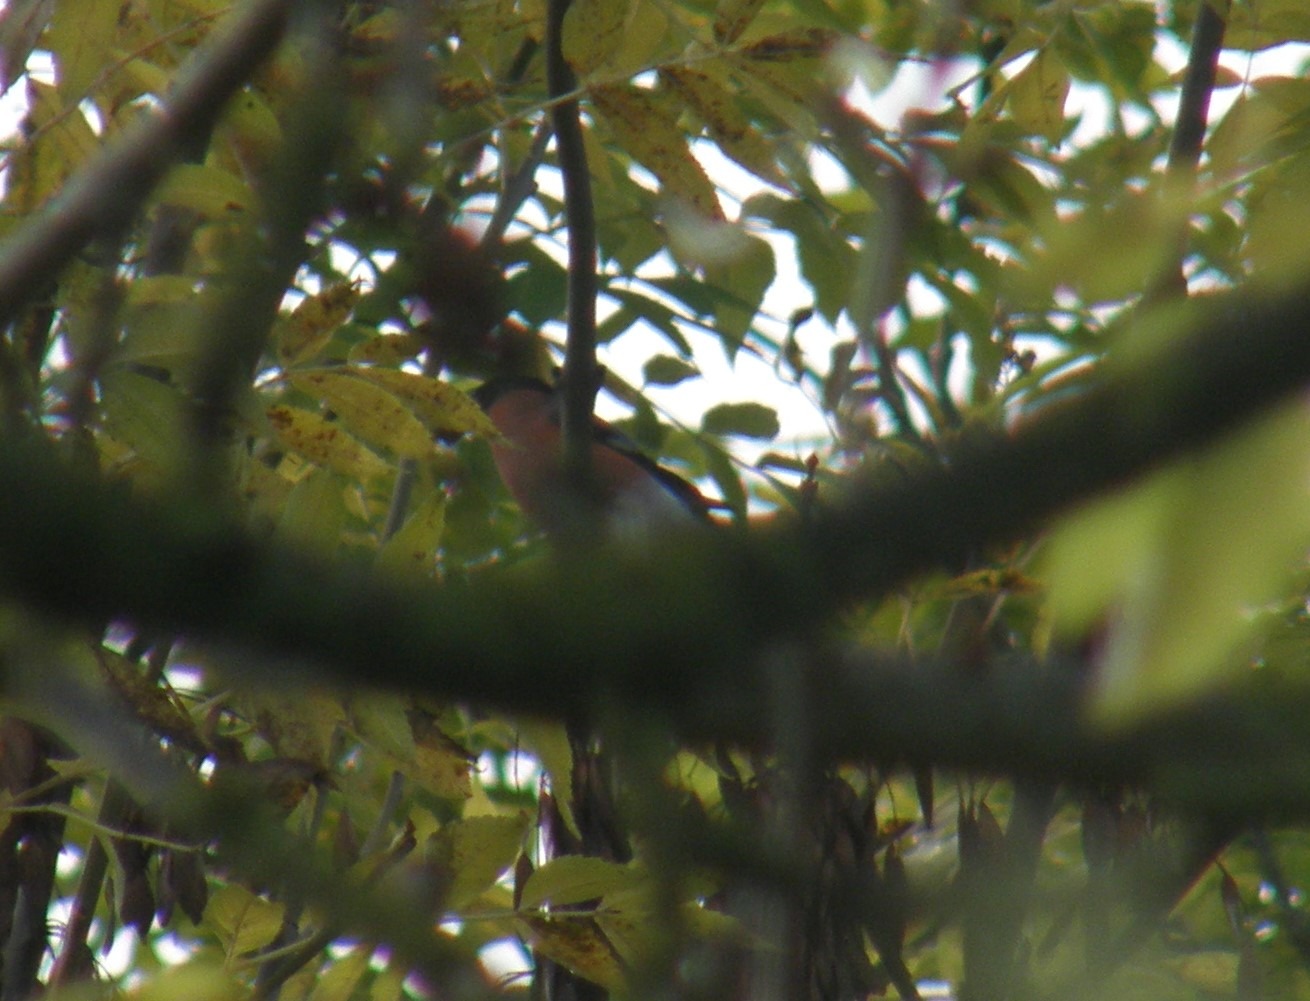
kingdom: Animalia
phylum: Chordata
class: Aves
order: Passeriformes
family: Fringillidae
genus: Pyrrhula
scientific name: Pyrrhula pyrrhula
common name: Dompap
